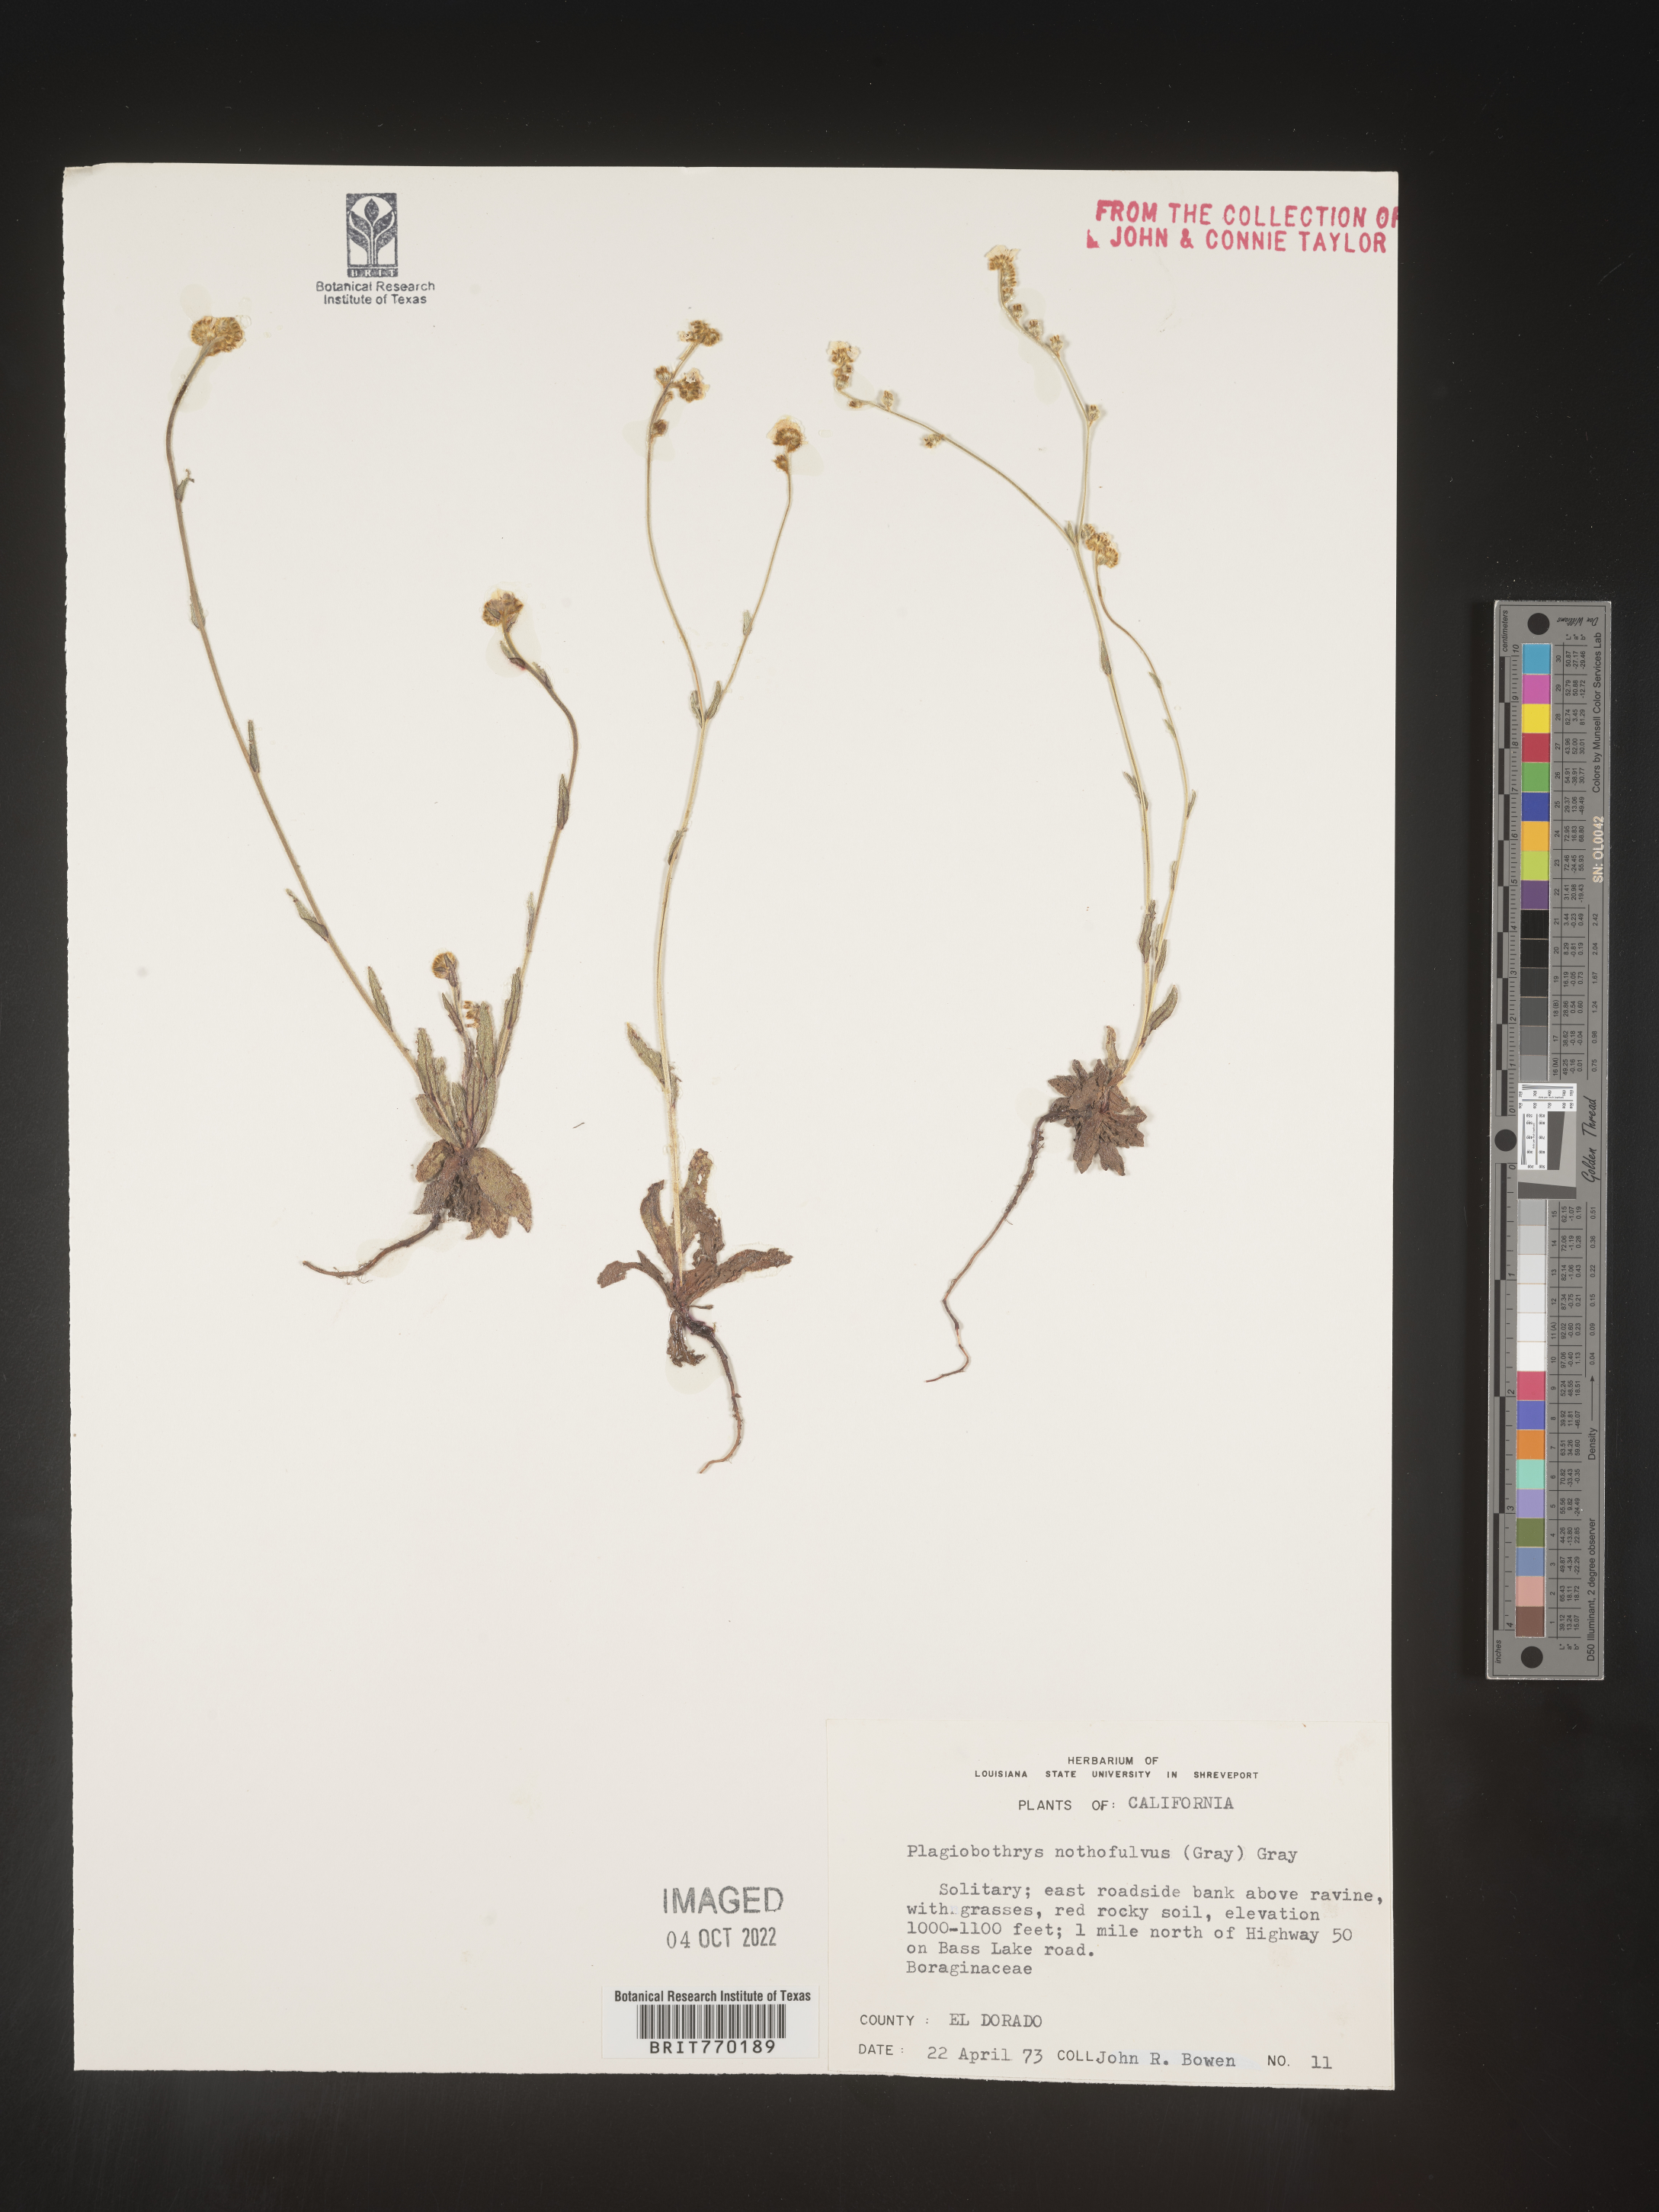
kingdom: Plantae
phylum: Tracheophyta
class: Magnoliopsida
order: Boraginales
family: Boraginaceae
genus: Plagiobothrys
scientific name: Plagiobothrys
